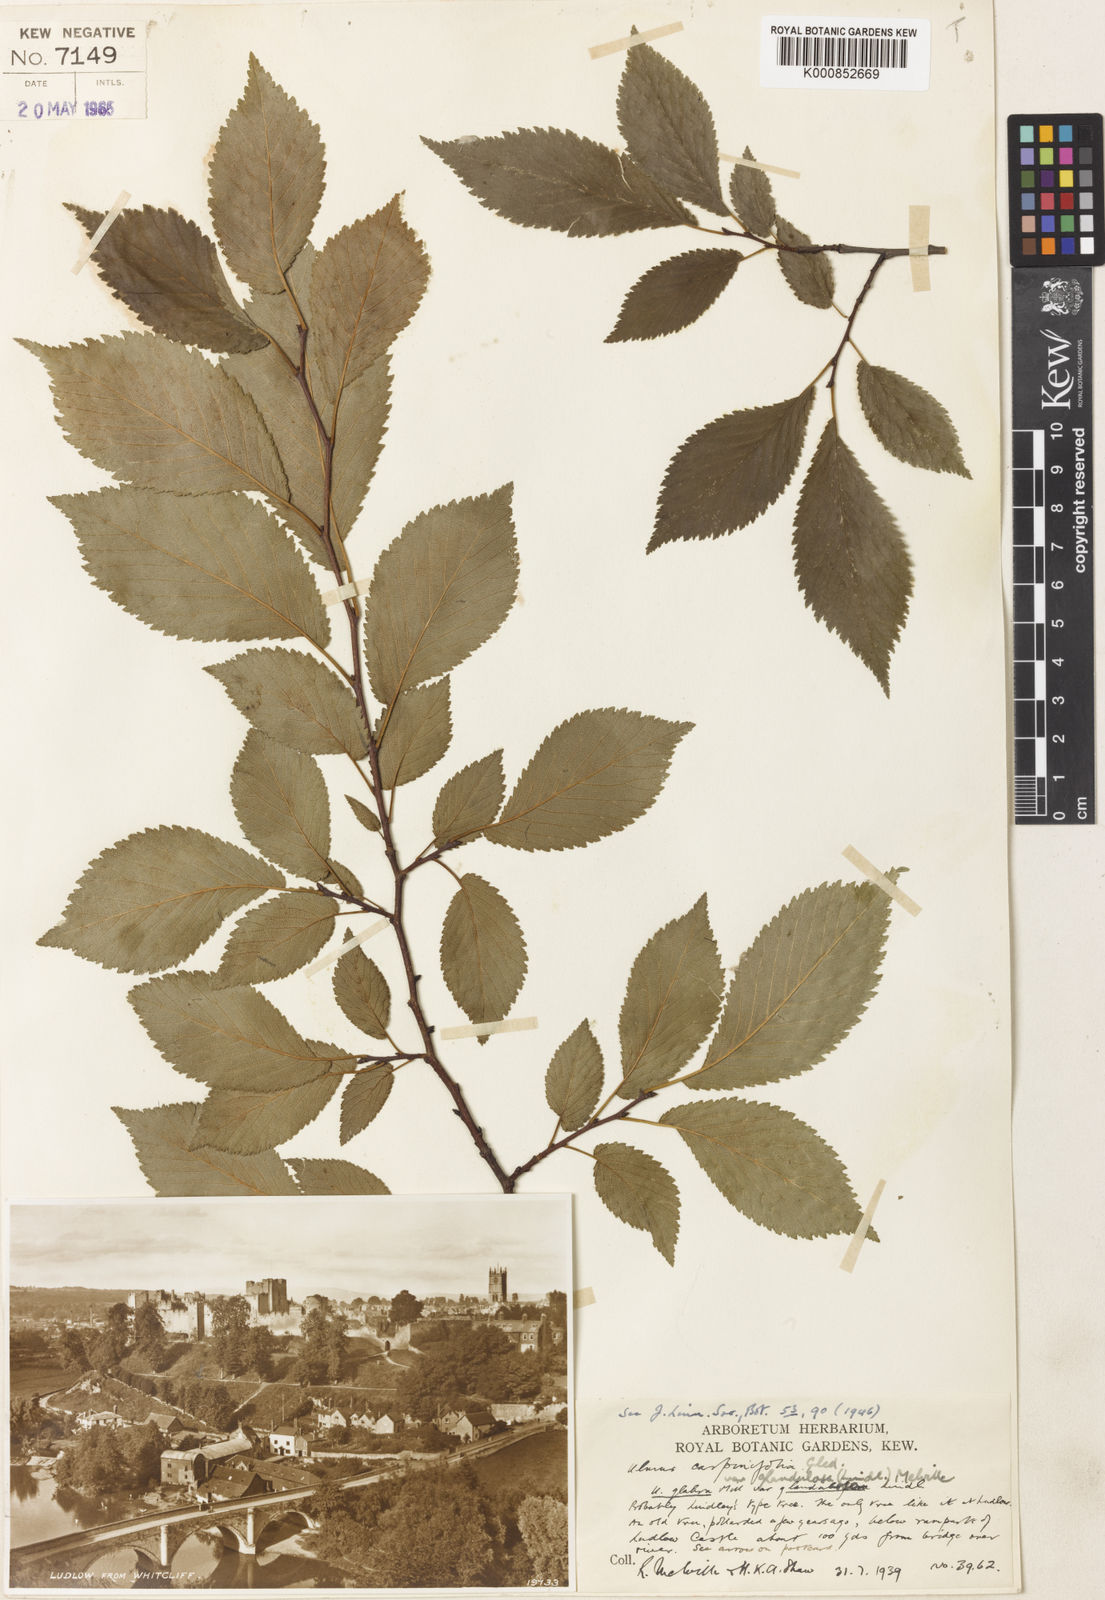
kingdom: Plantae
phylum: Tracheophyta
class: Magnoliopsida
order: Rosales
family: Ulmaceae
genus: Ulmus
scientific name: Ulmus minor
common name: Small-leaved elm
